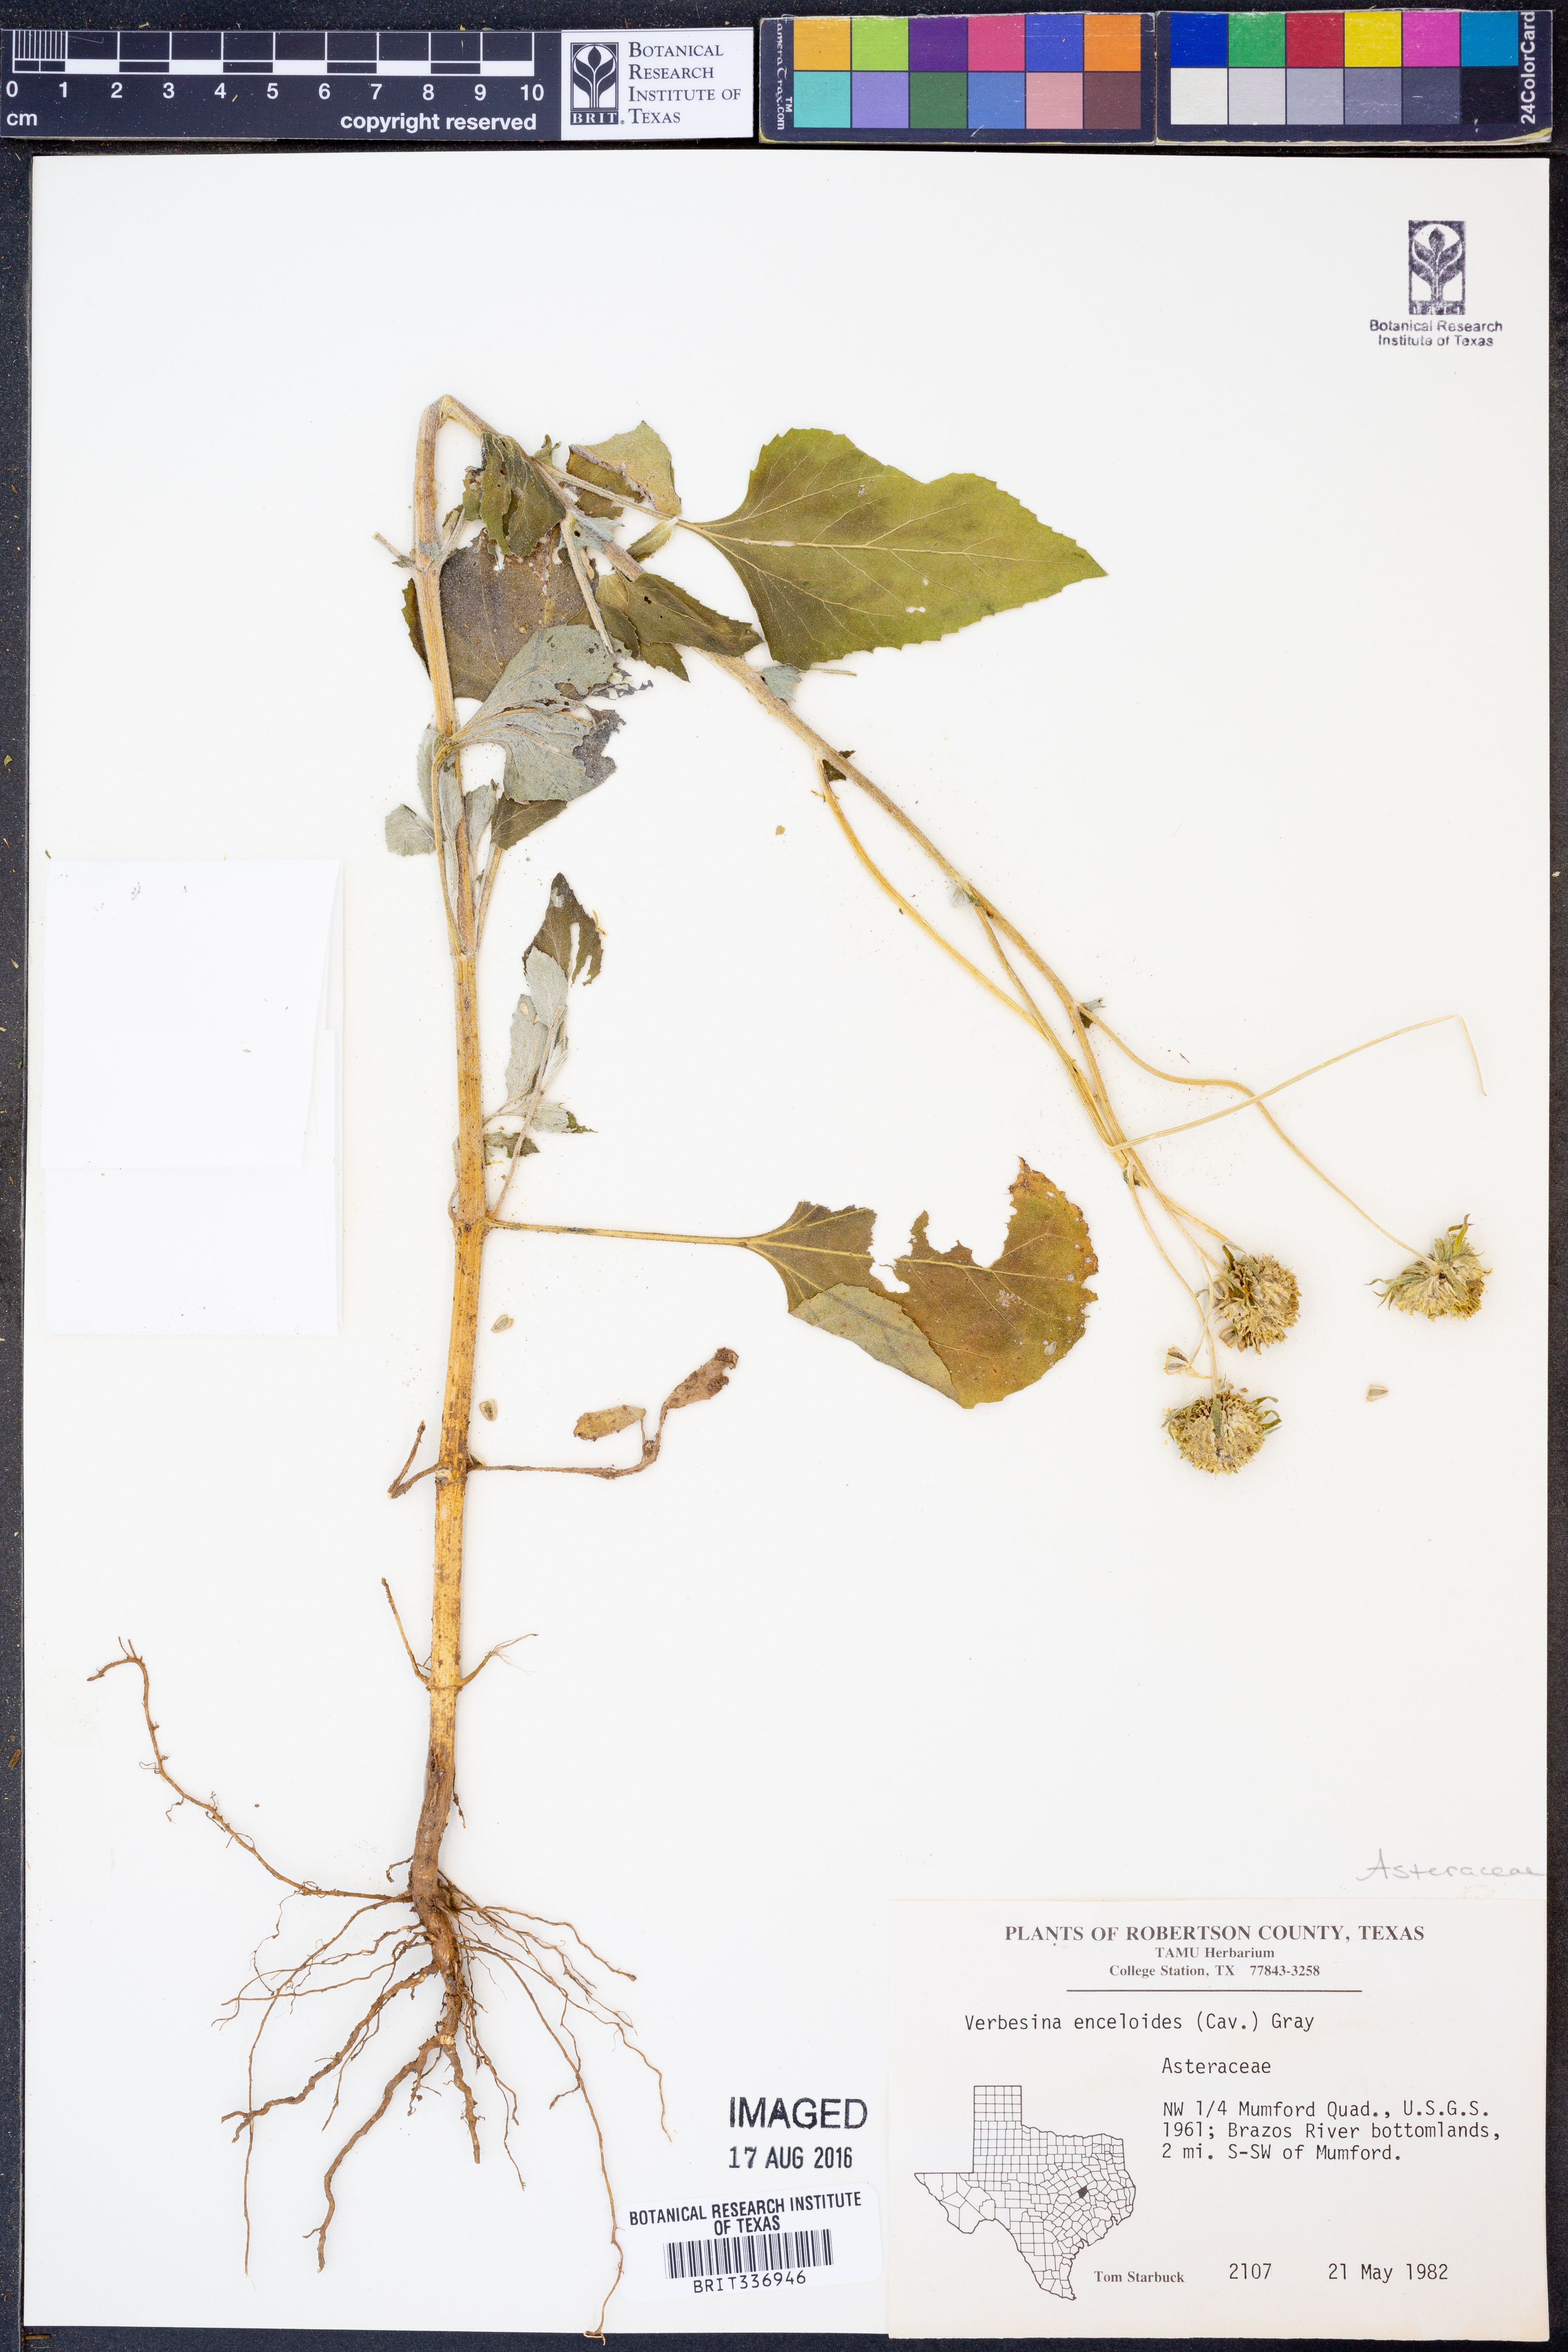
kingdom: Plantae
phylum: Tracheophyta
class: Magnoliopsida
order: Asterales
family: Asteraceae
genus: Verbesina
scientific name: Verbesina encelioides
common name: Golden crownbeard
